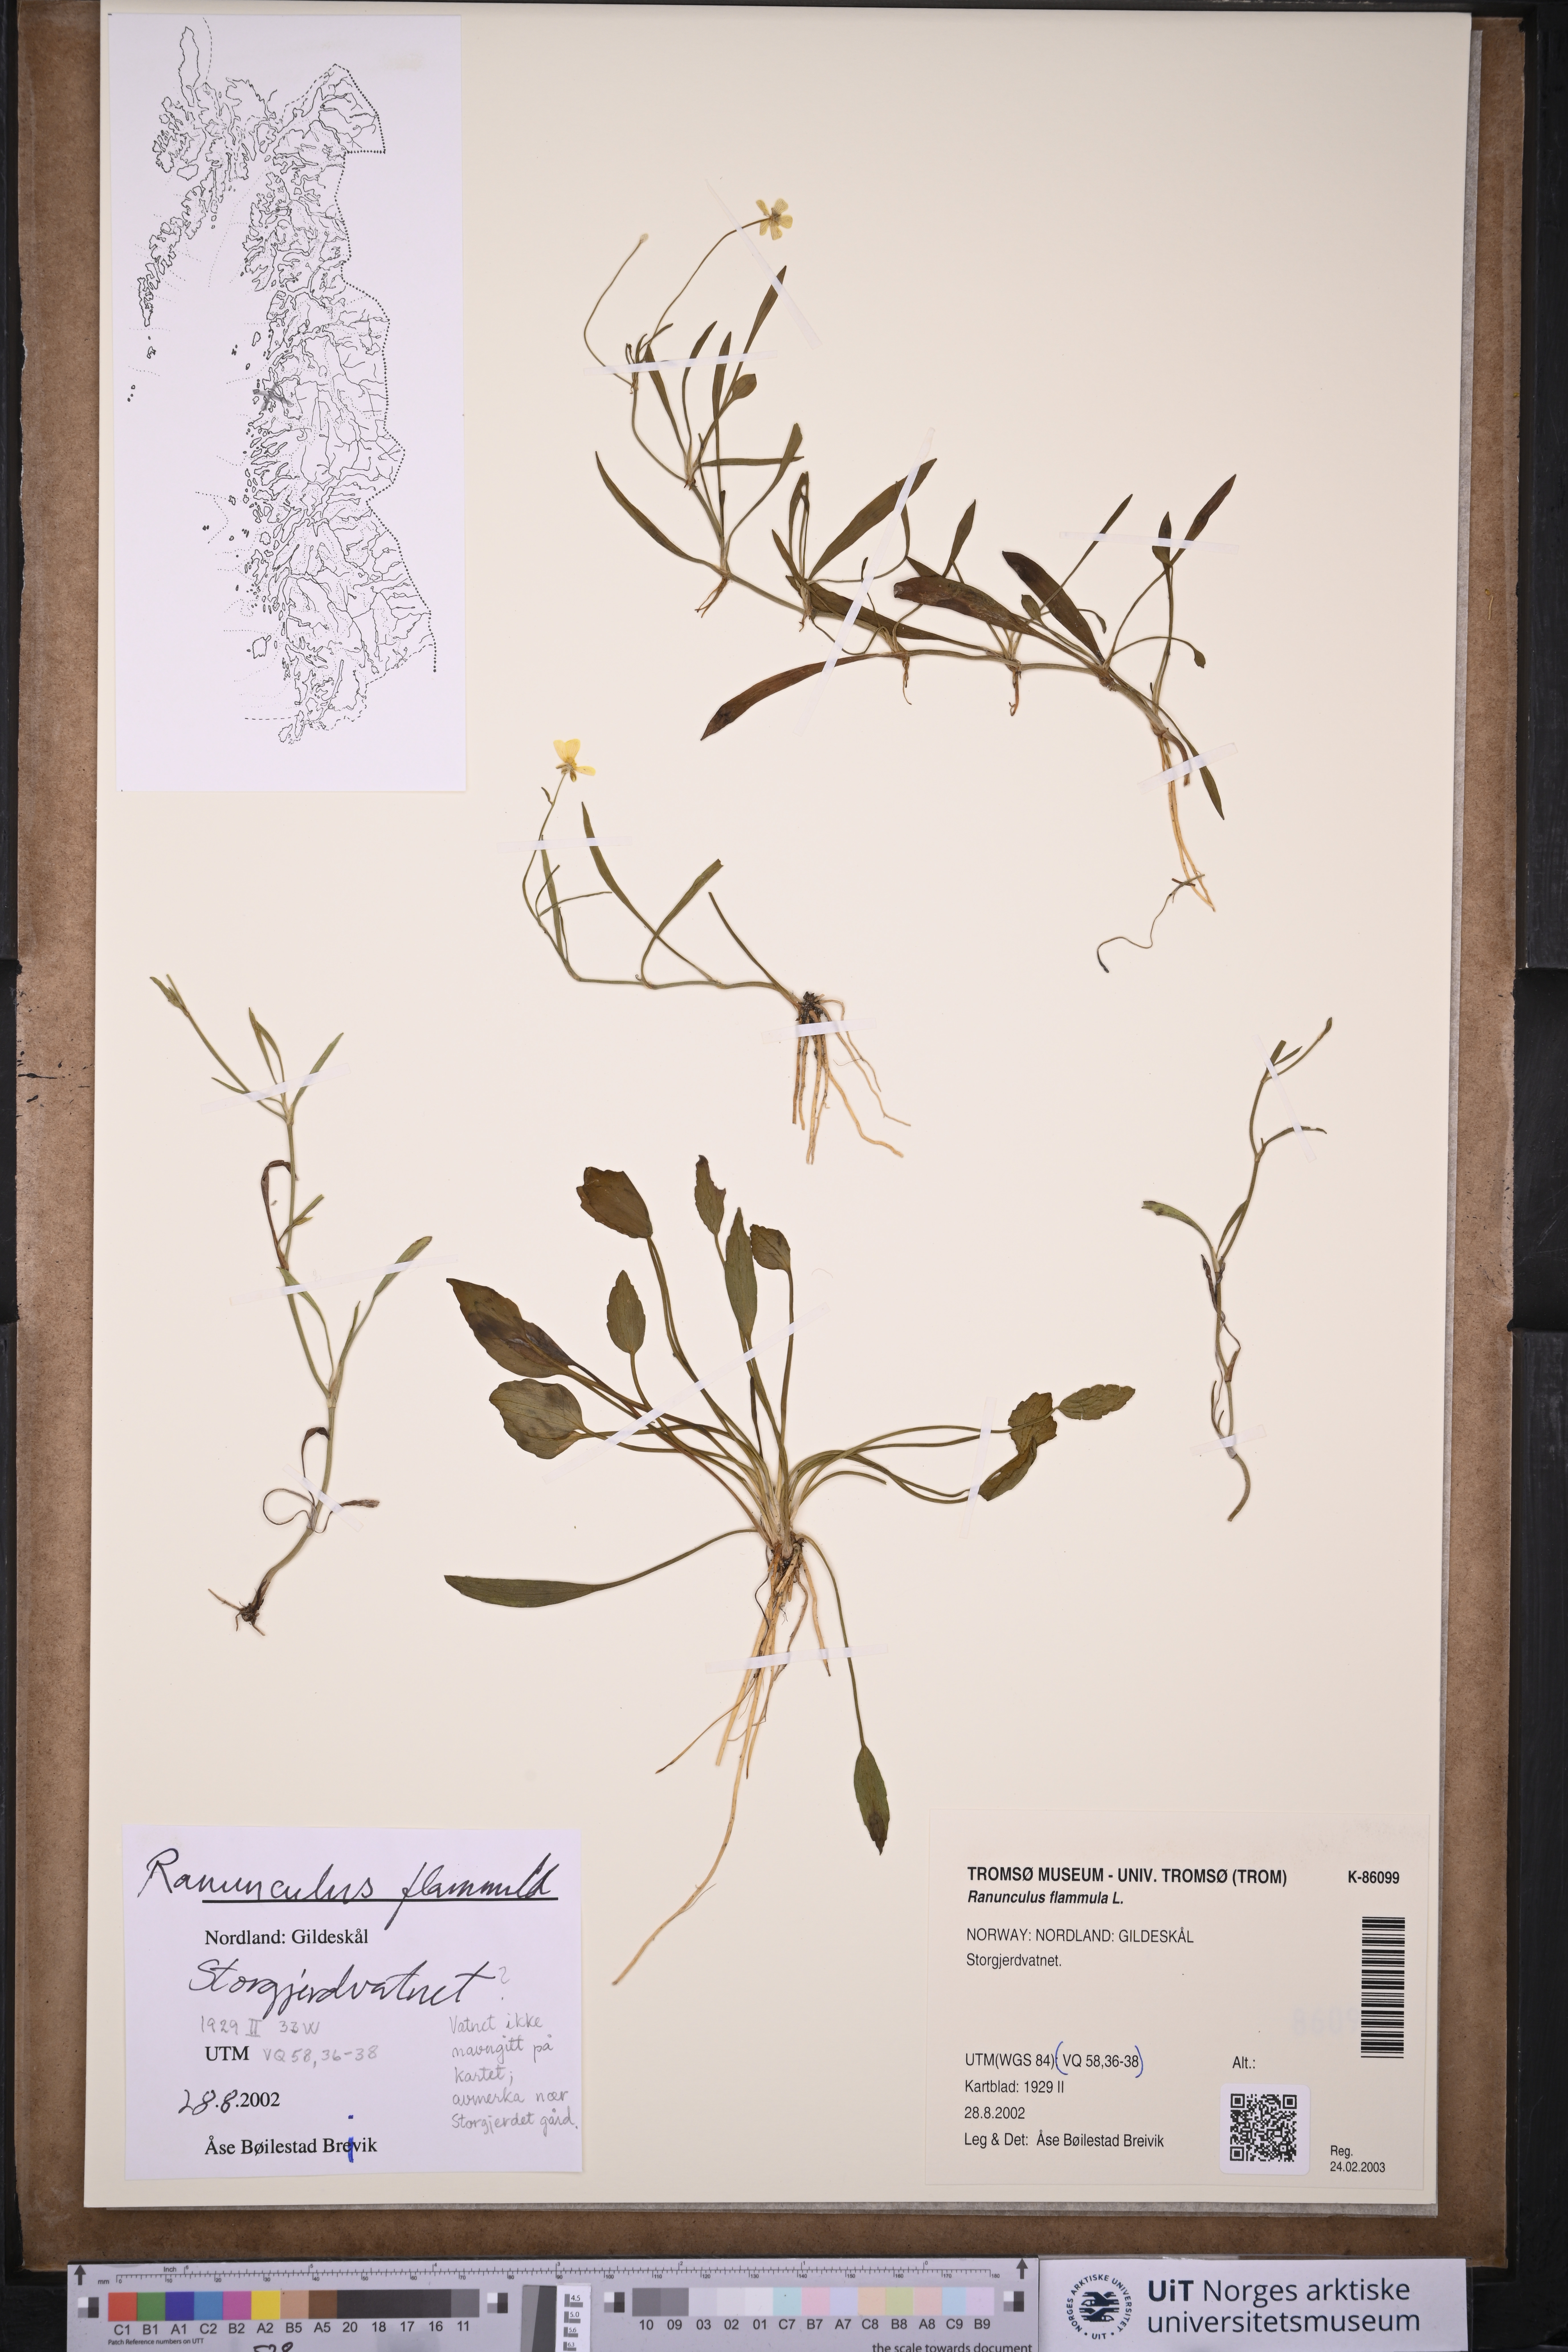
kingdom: Plantae
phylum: Tracheophyta
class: Magnoliopsida
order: Ranunculales
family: Ranunculaceae
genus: Ranunculus
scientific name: Ranunculus flammula
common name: Lesser spearwort
